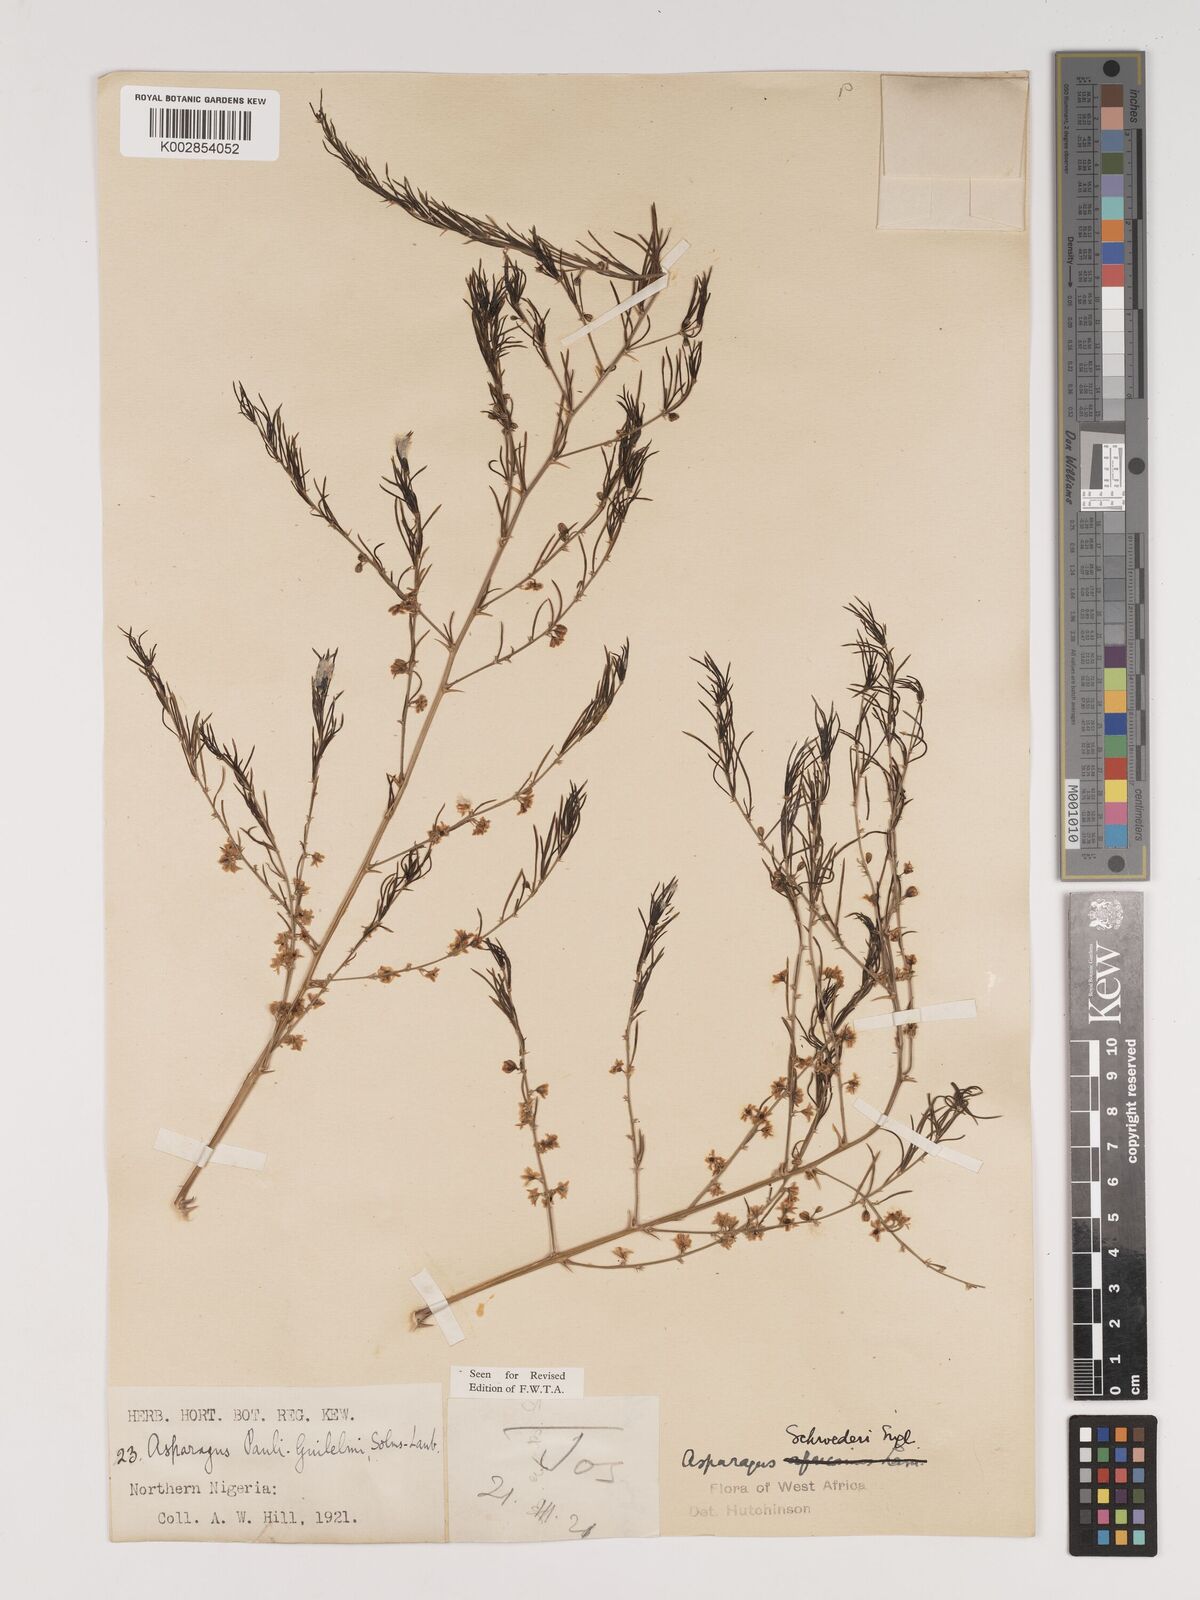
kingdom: Plantae
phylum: Tracheophyta
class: Liliopsida
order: Asparagales
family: Asparagaceae
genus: Asparagus
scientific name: Asparagus schroederi
